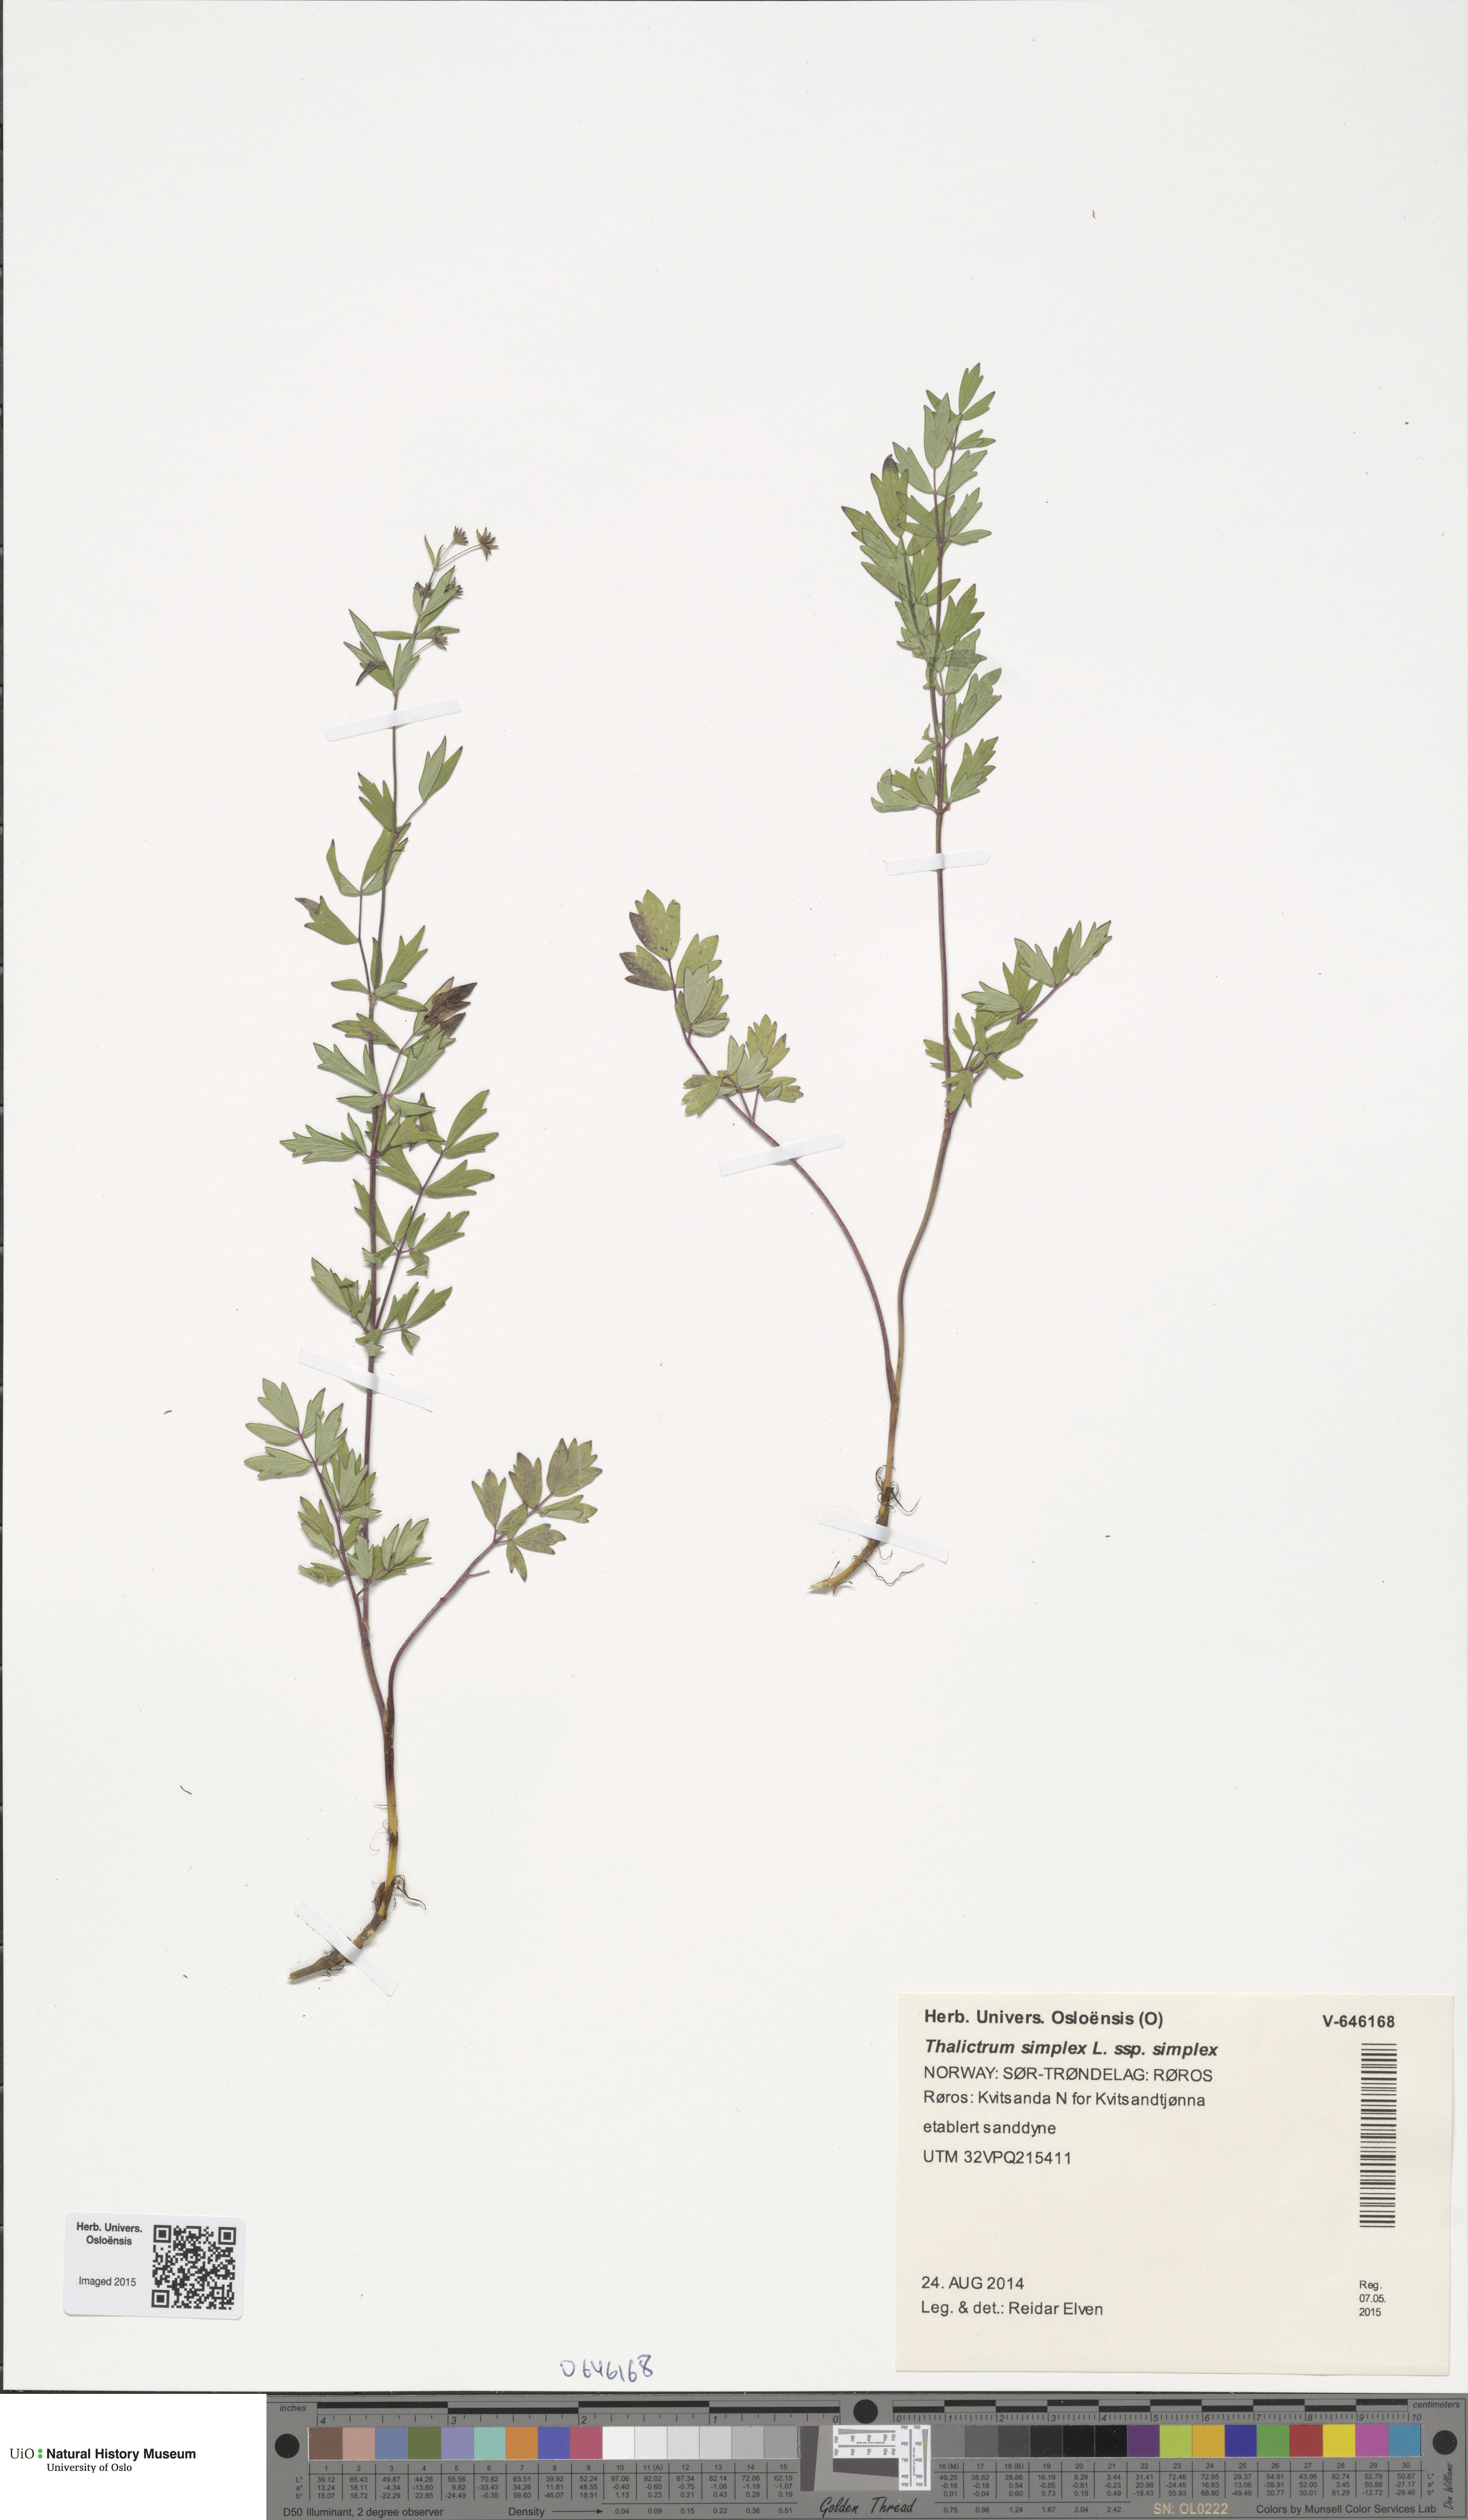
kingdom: Plantae
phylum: Tracheophyta
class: Magnoliopsida
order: Ranunculales
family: Ranunculaceae
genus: Thalictrum
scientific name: Thalictrum simplex
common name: Small meadow-rue
